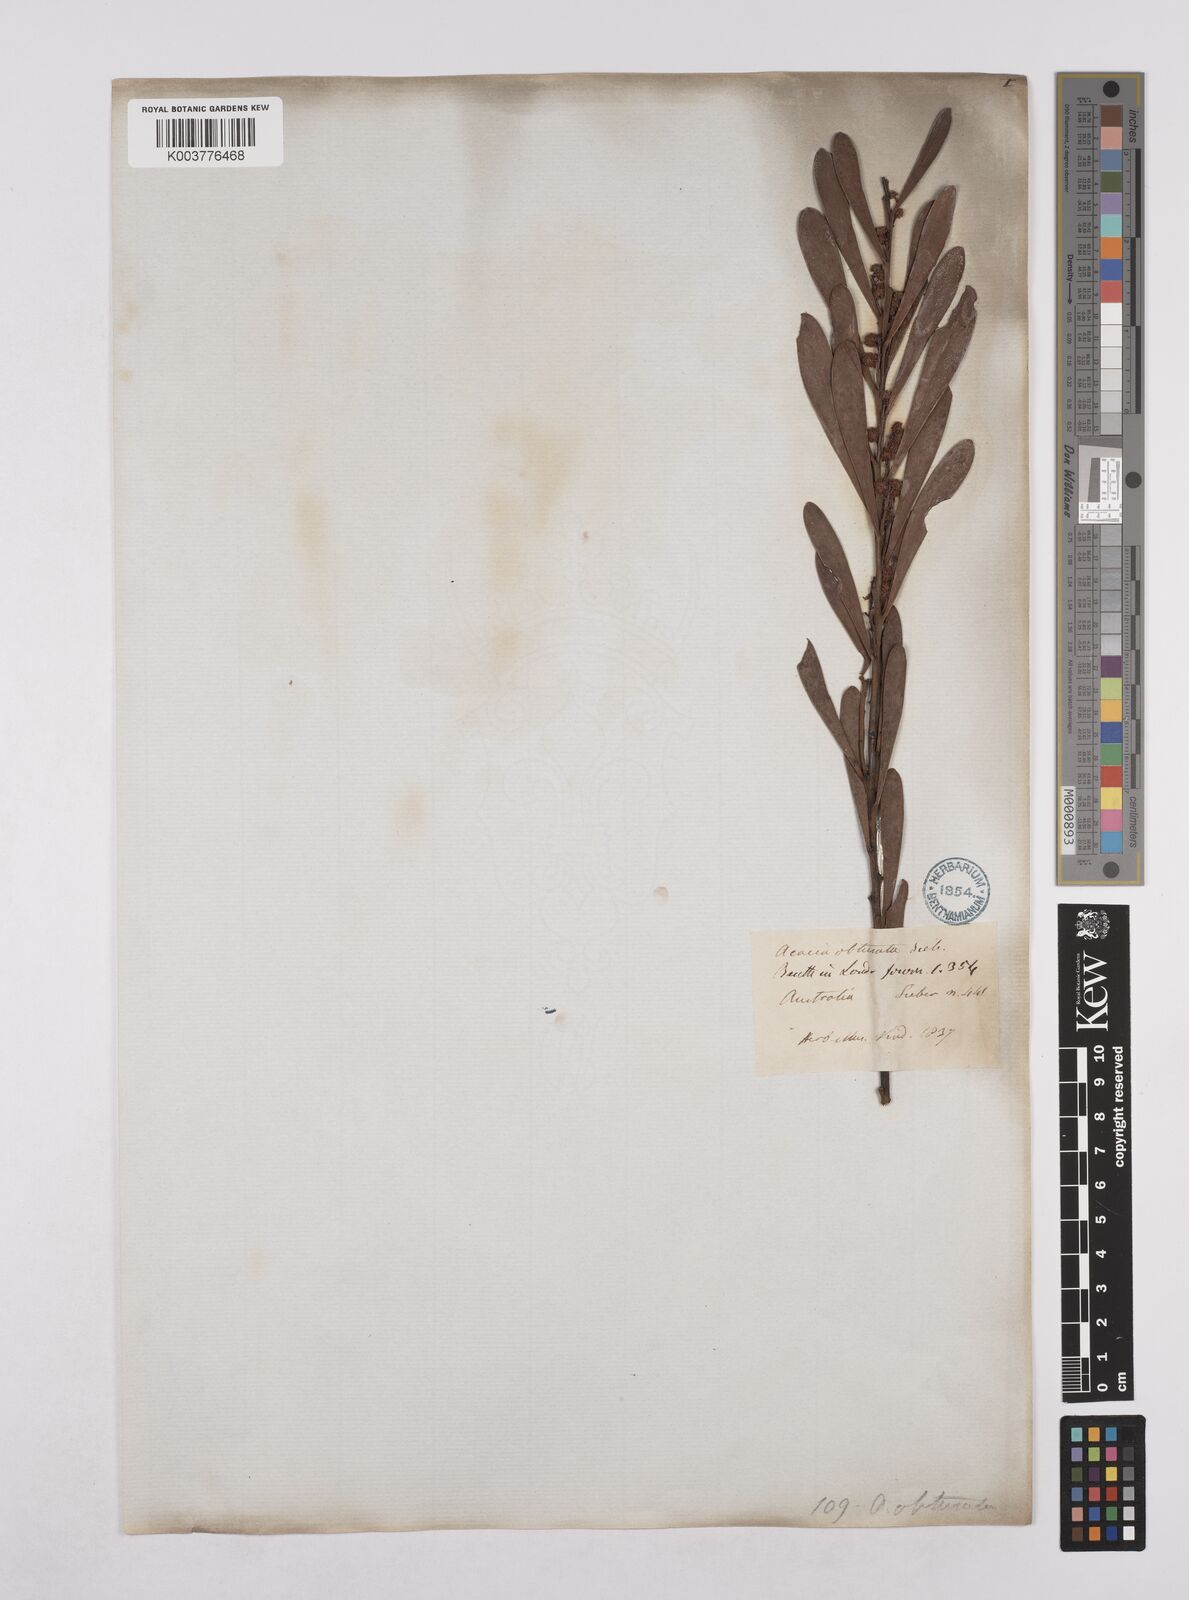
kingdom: Plantae
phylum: Tracheophyta
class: Magnoliopsida
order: Fabales
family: Fabaceae
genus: Acacia
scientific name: Acacia obtusata
